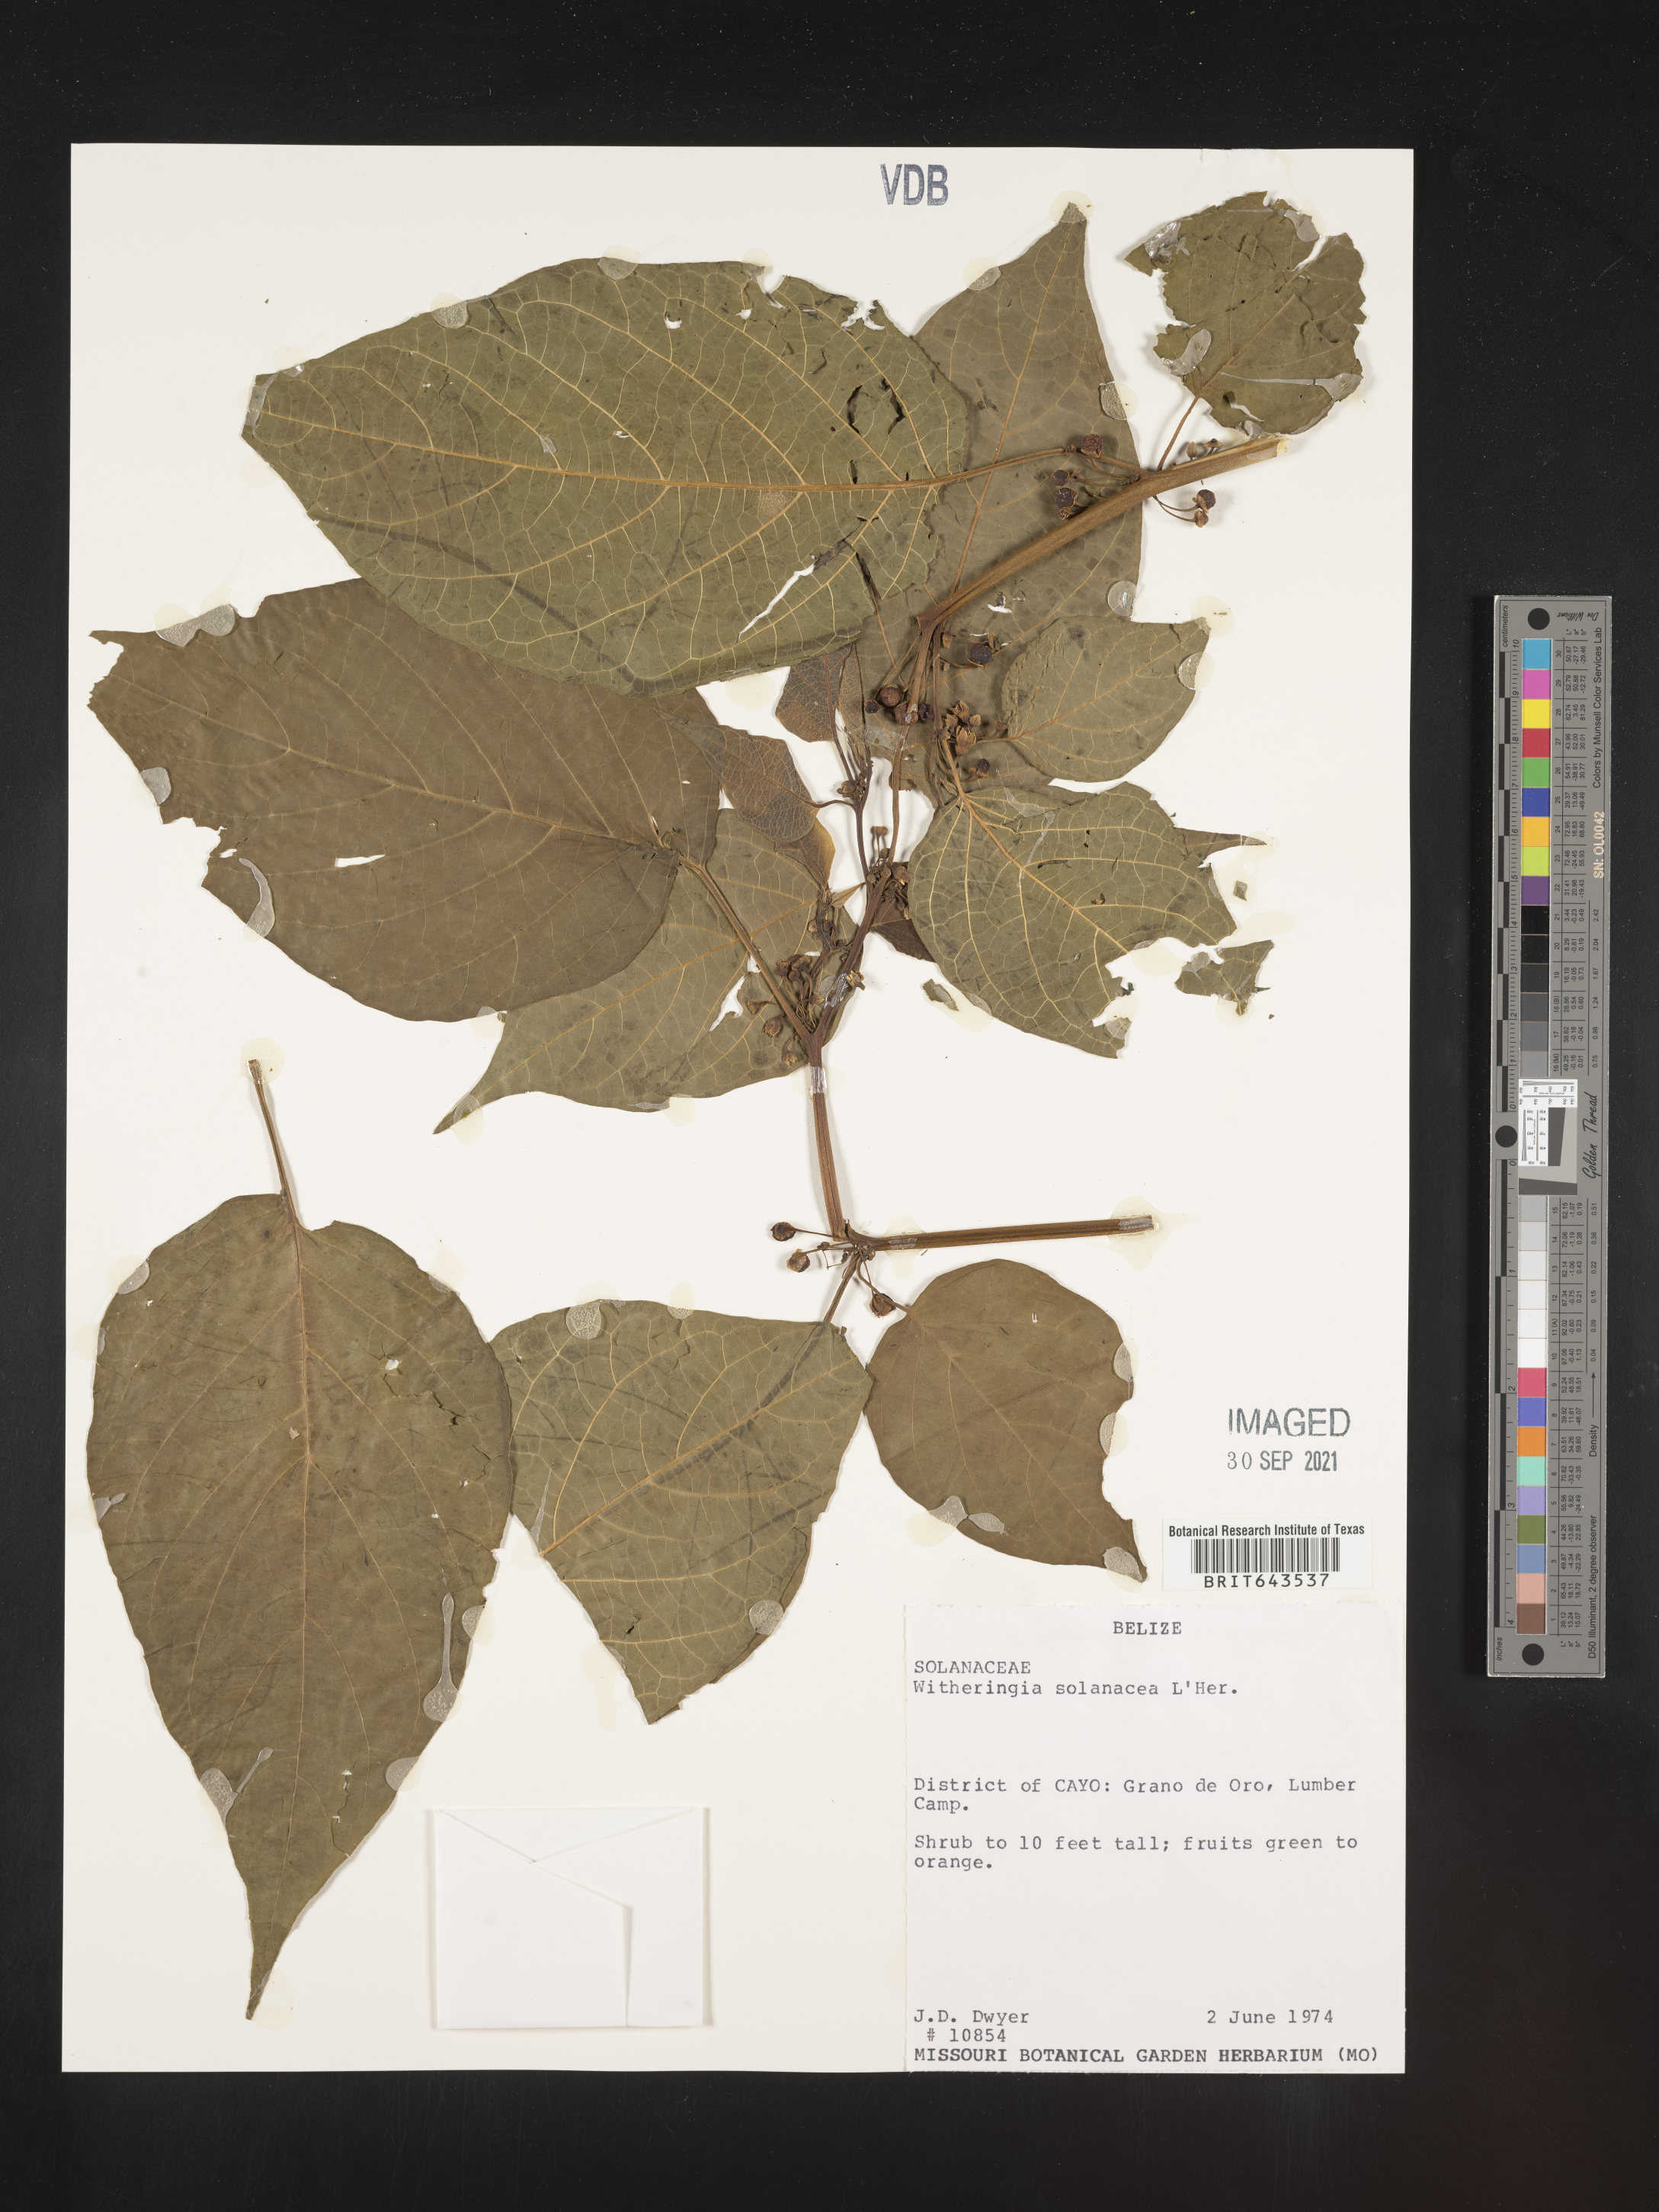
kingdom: Plantae
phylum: Tracheophyta
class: Magnoliopsida
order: Solanales
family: Solanaceae
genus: Witheringia
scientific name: Witheringia
